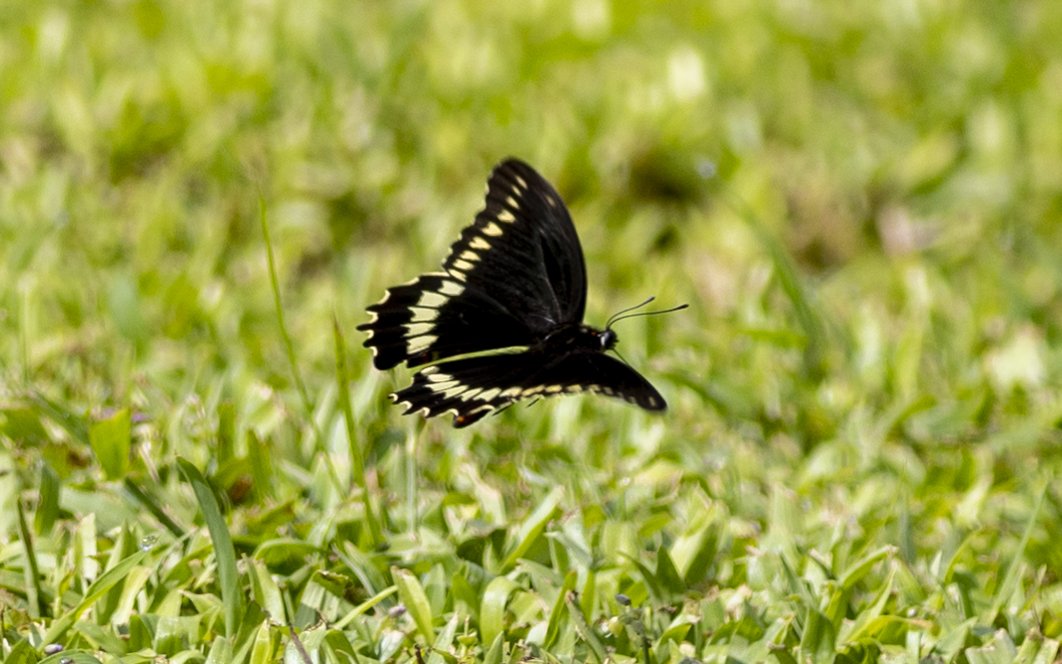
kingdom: Animalia
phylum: Arthropoda
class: Insecta
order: Lepidoptera
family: Papilionidae
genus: Battus
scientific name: Battus polydamas
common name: Polydamas Swallowtail
